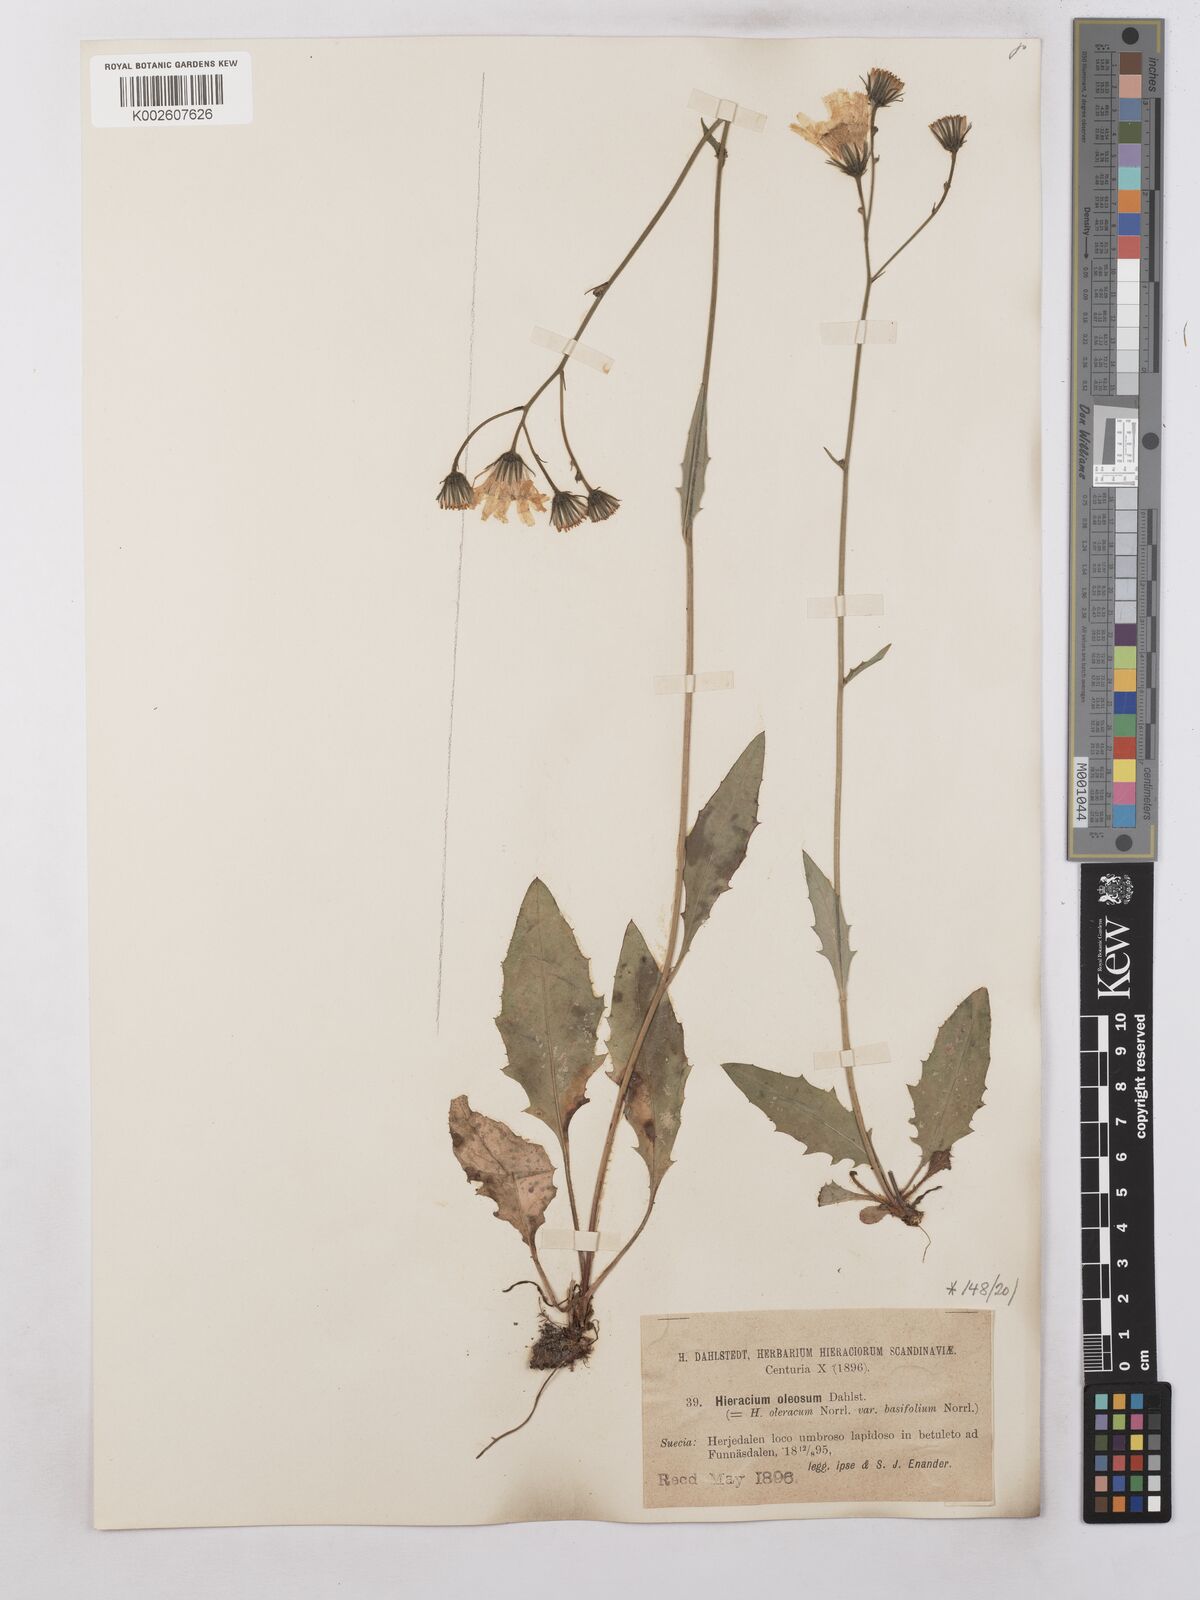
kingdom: Plantae
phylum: Tracheophyta
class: Magnoliopsida
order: Asterales
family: Asteraceae
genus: Hieracium
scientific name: Hieracium subramosum
